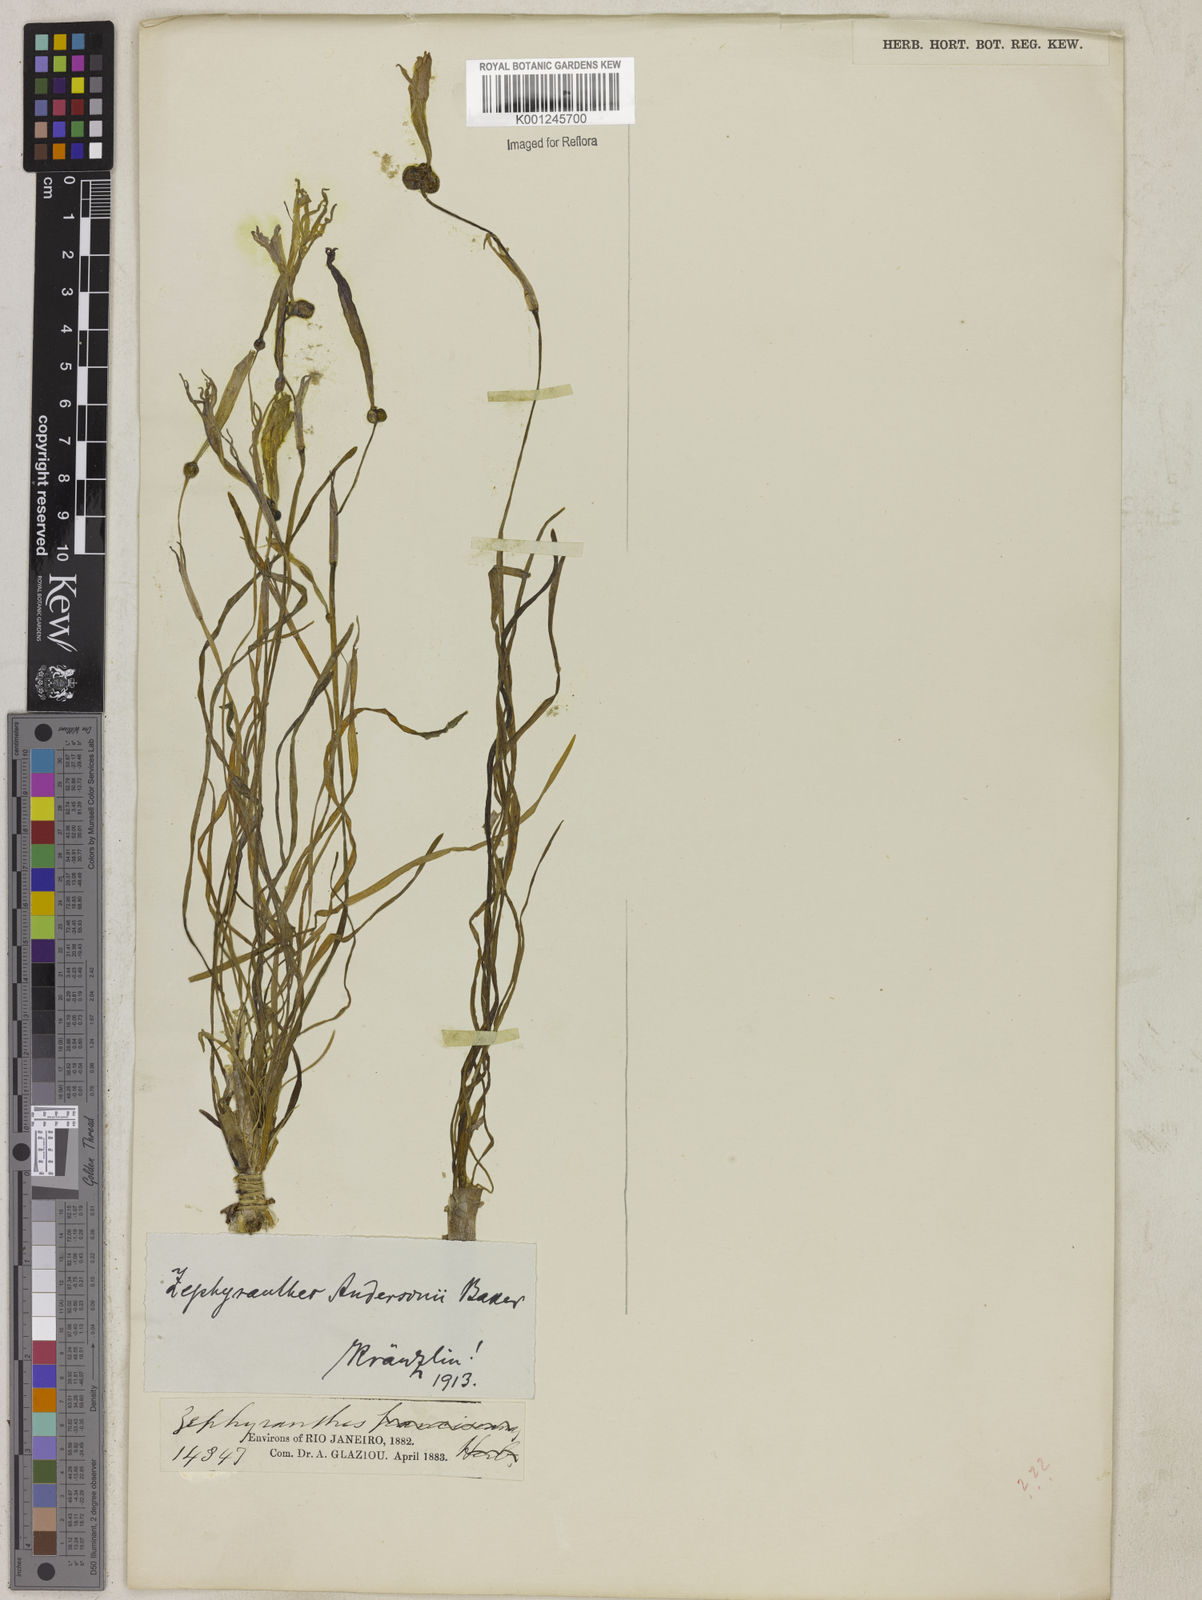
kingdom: Plantae
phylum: Tracheophyta
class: Liliopsida
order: Asparagales
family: Amaryllidaceae
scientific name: Amaryllidaceae
